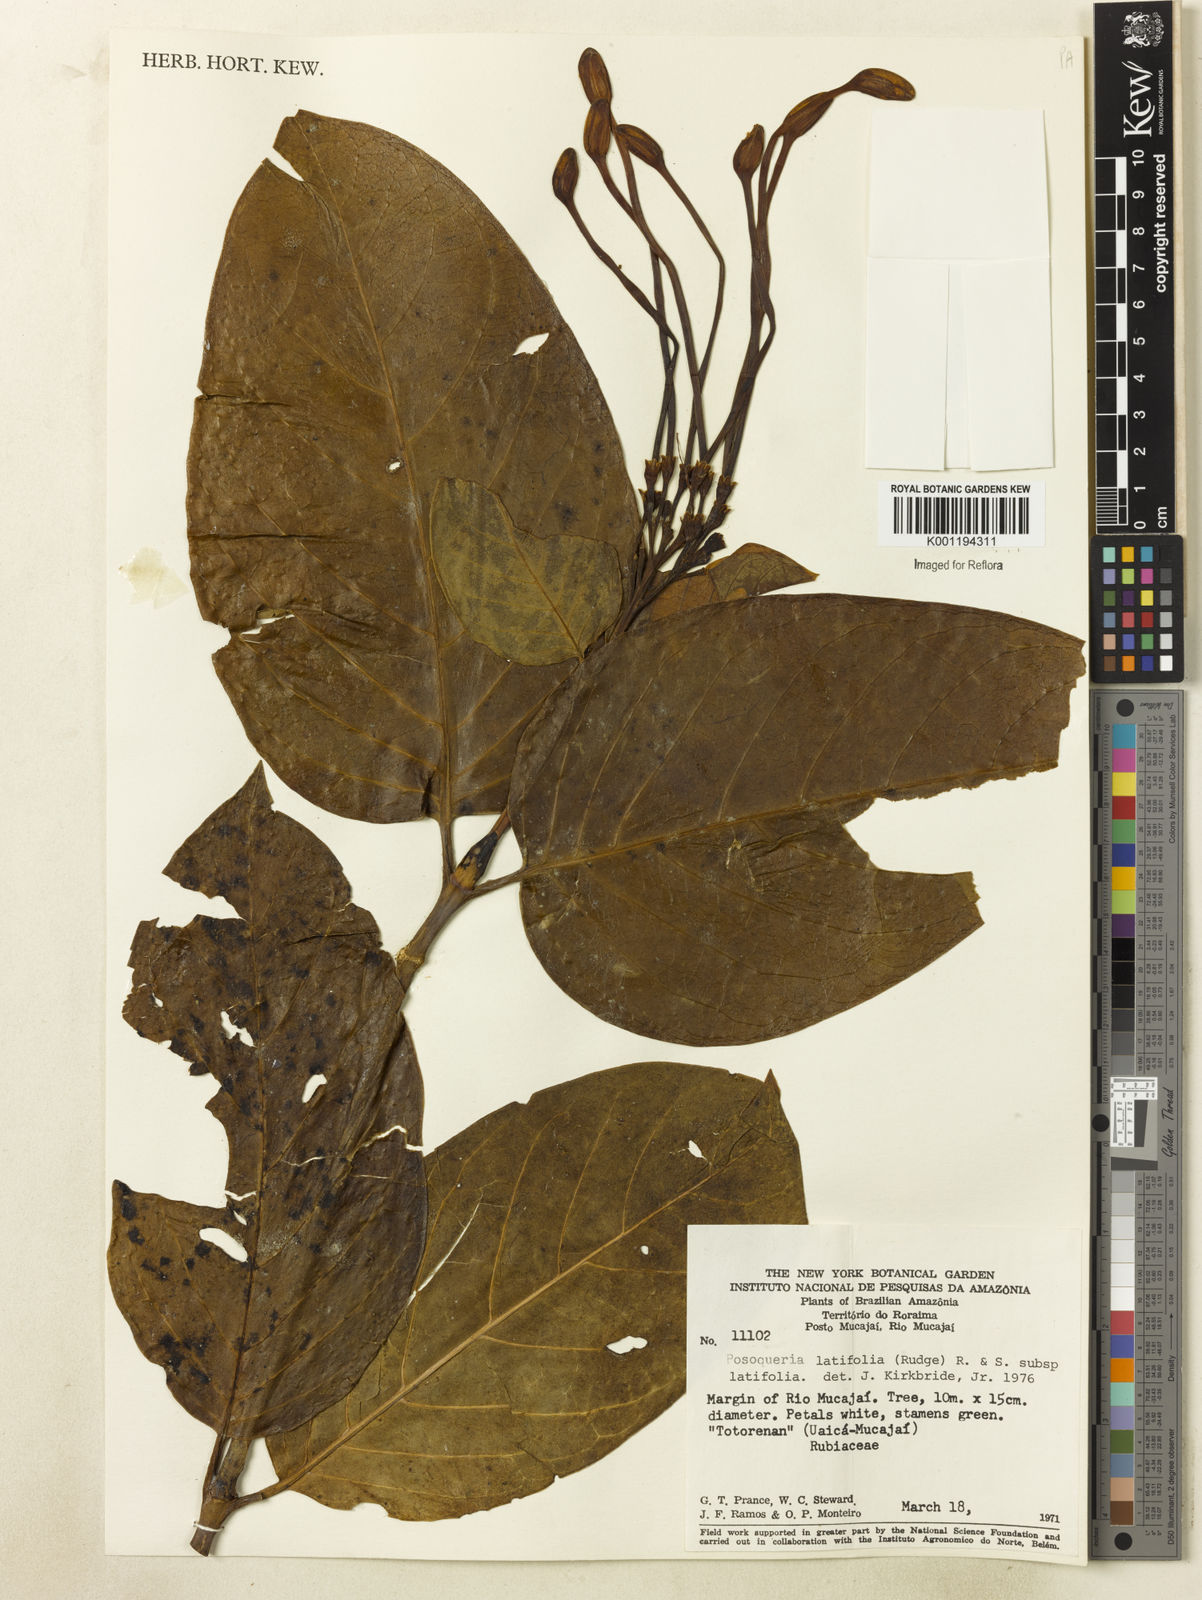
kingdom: Plantae
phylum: Tracheophyta
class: Magnoliopsida
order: Gentianales
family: Rubiaceae
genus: Posoqueria
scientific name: Posoqueria latifolia
